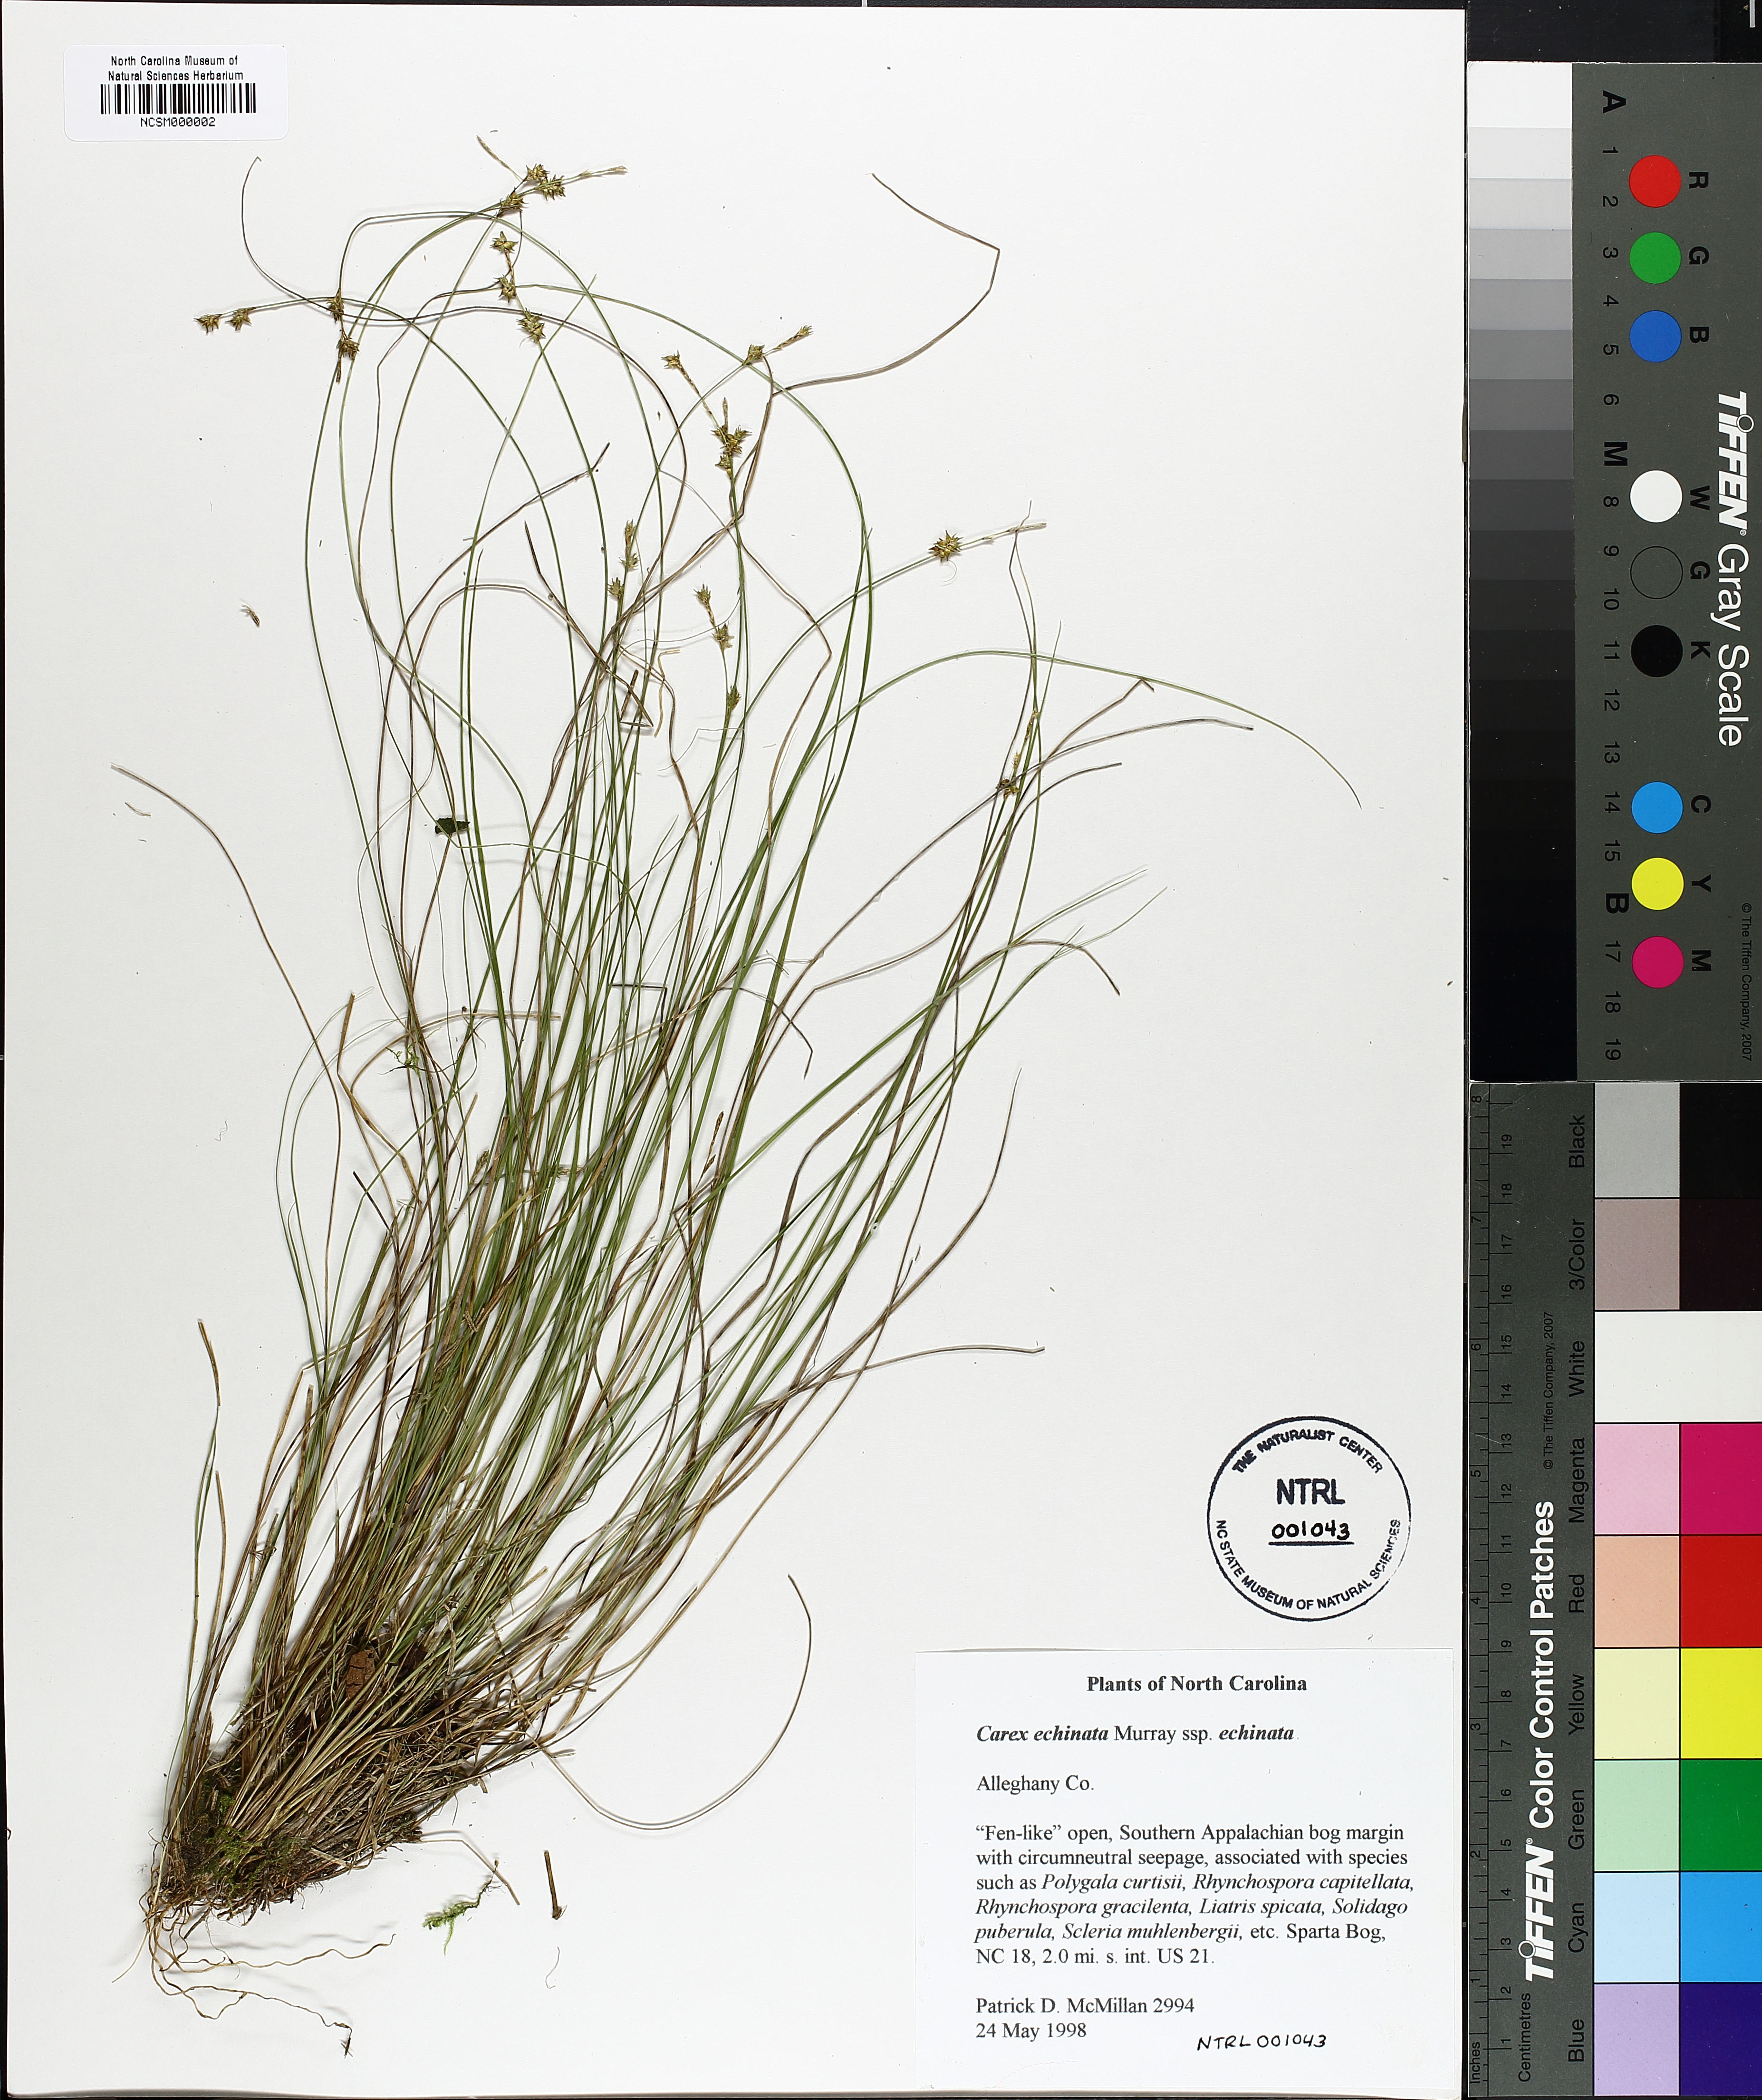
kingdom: Plantae
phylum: Tracheophyta
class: Liliopsida
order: Poales
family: Cyperaceae
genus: Carex
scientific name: Carex echinata
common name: Star sedge
